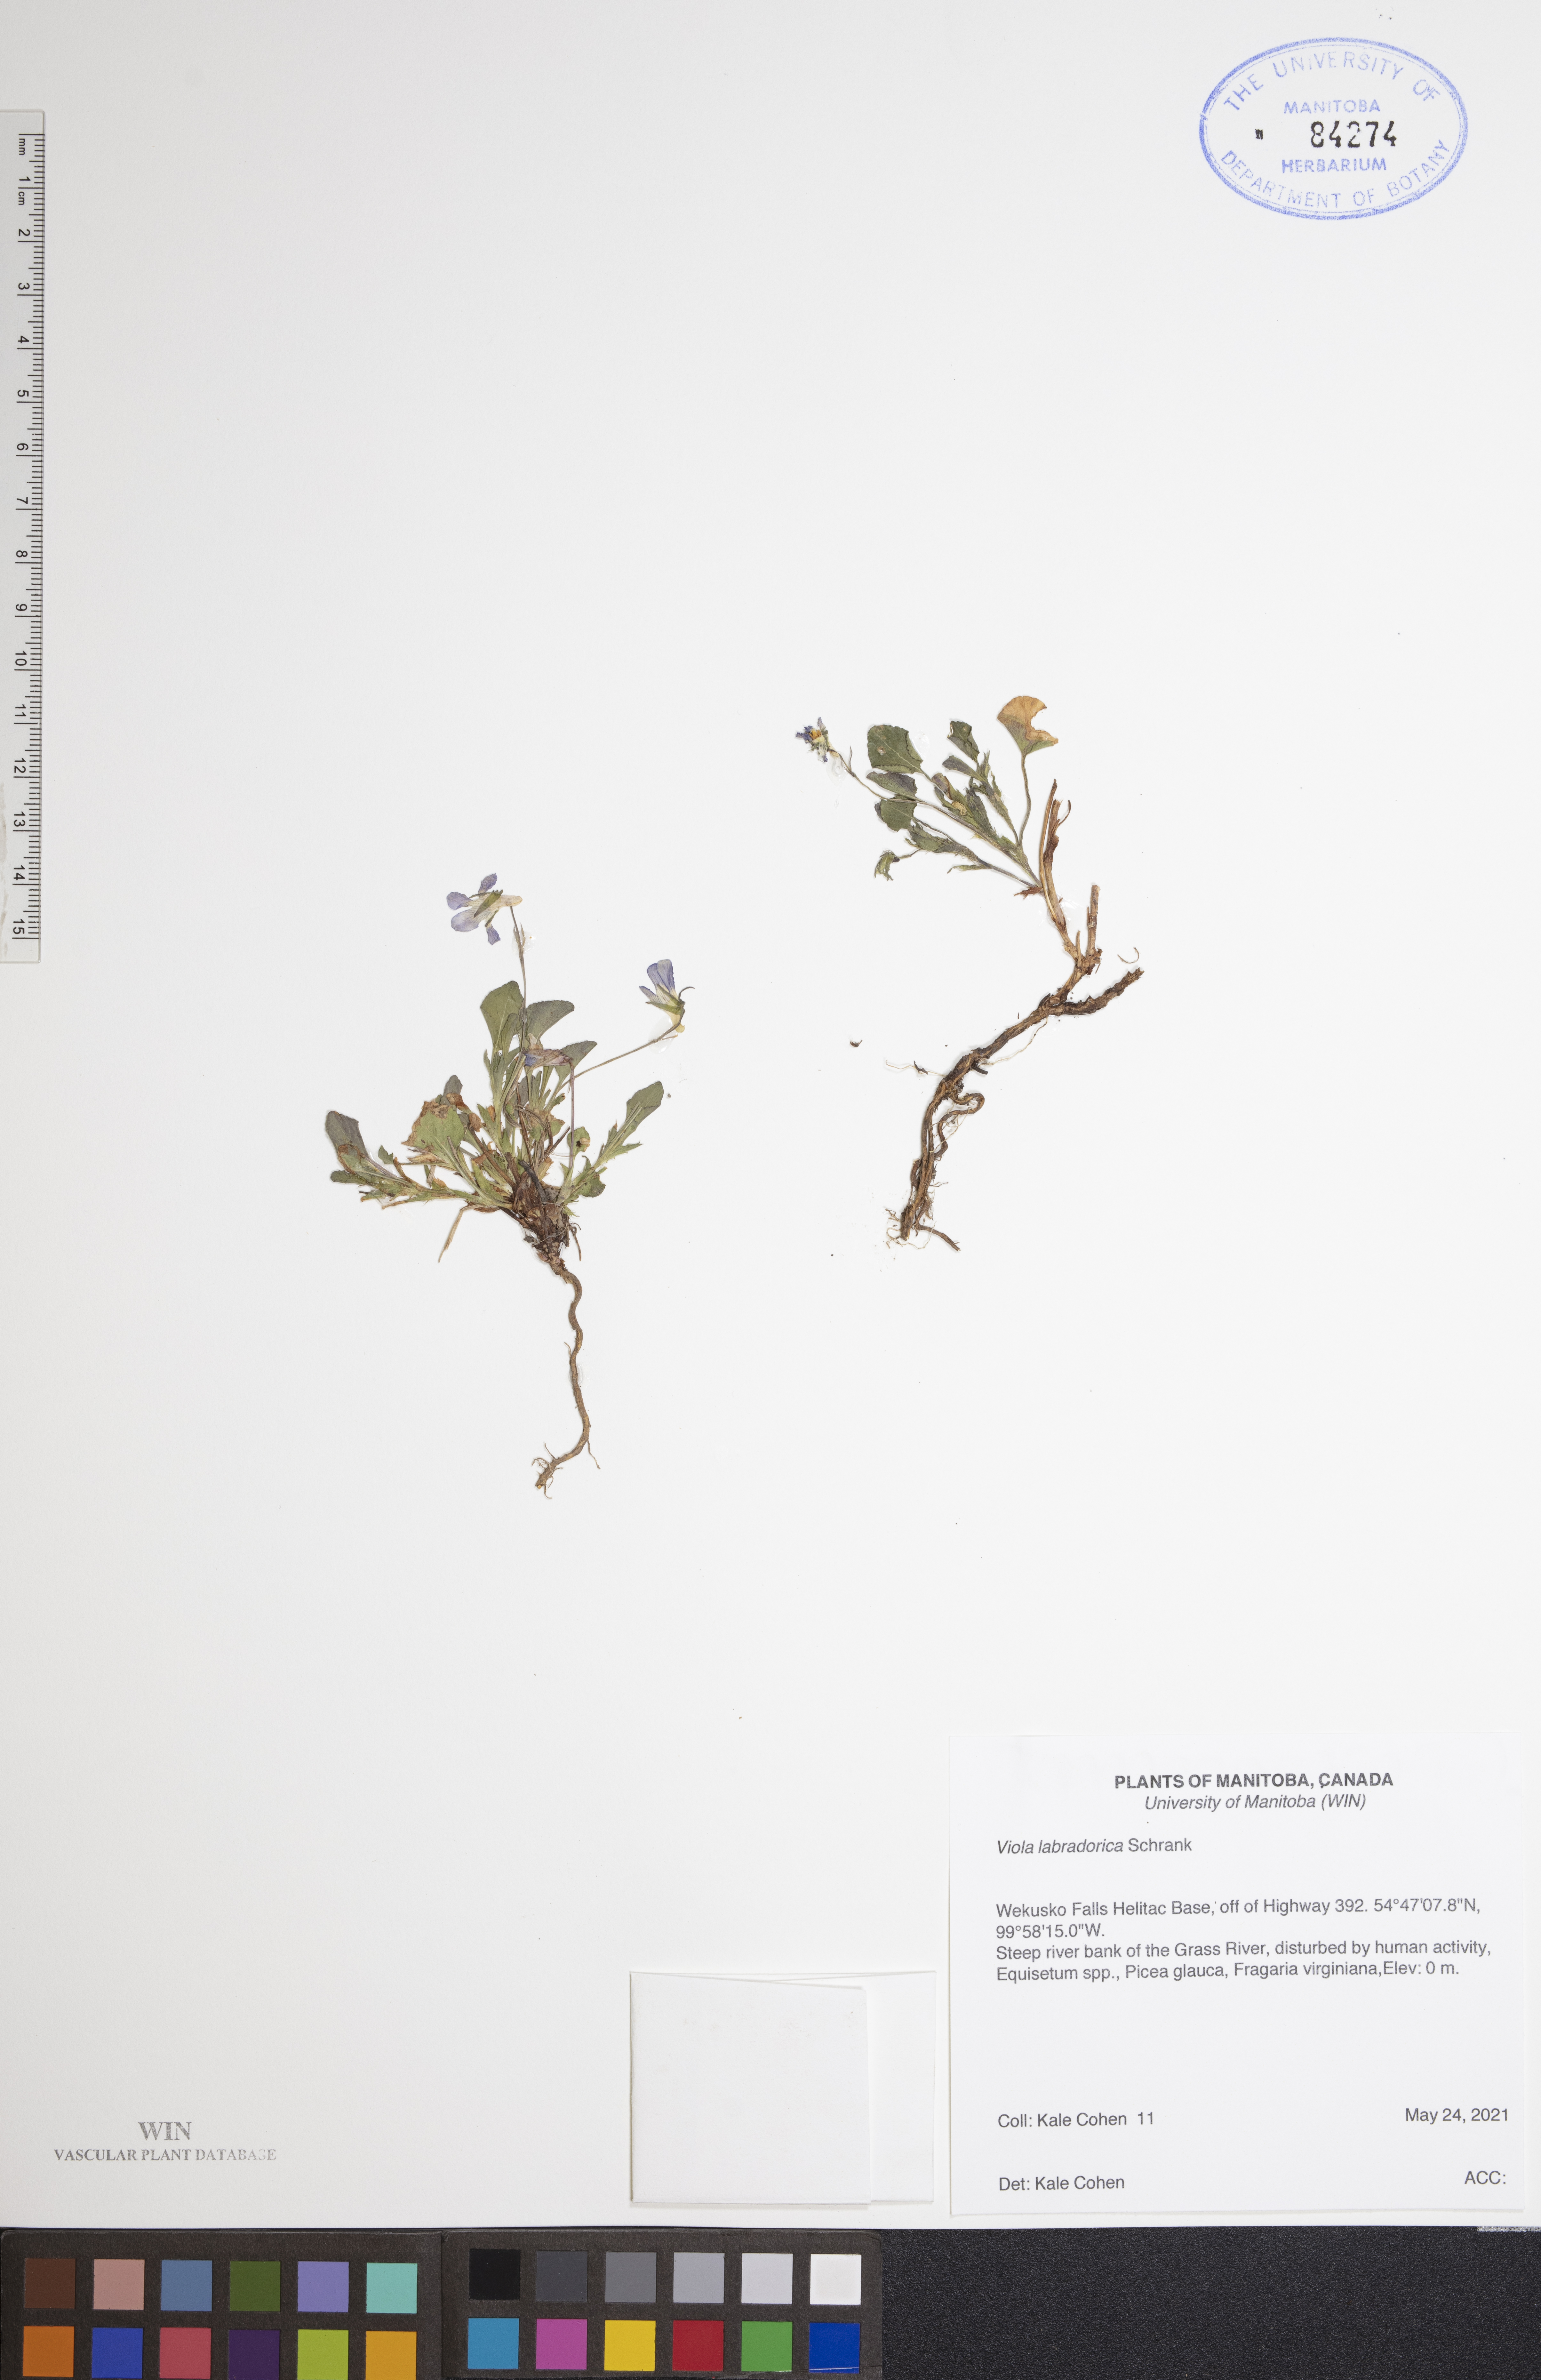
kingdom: Plantae
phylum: Tracheophyta
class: Magnoliopsida
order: Malpighiales
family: Violaceae
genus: Viola
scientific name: Viola labradorica
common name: Labrador violet
